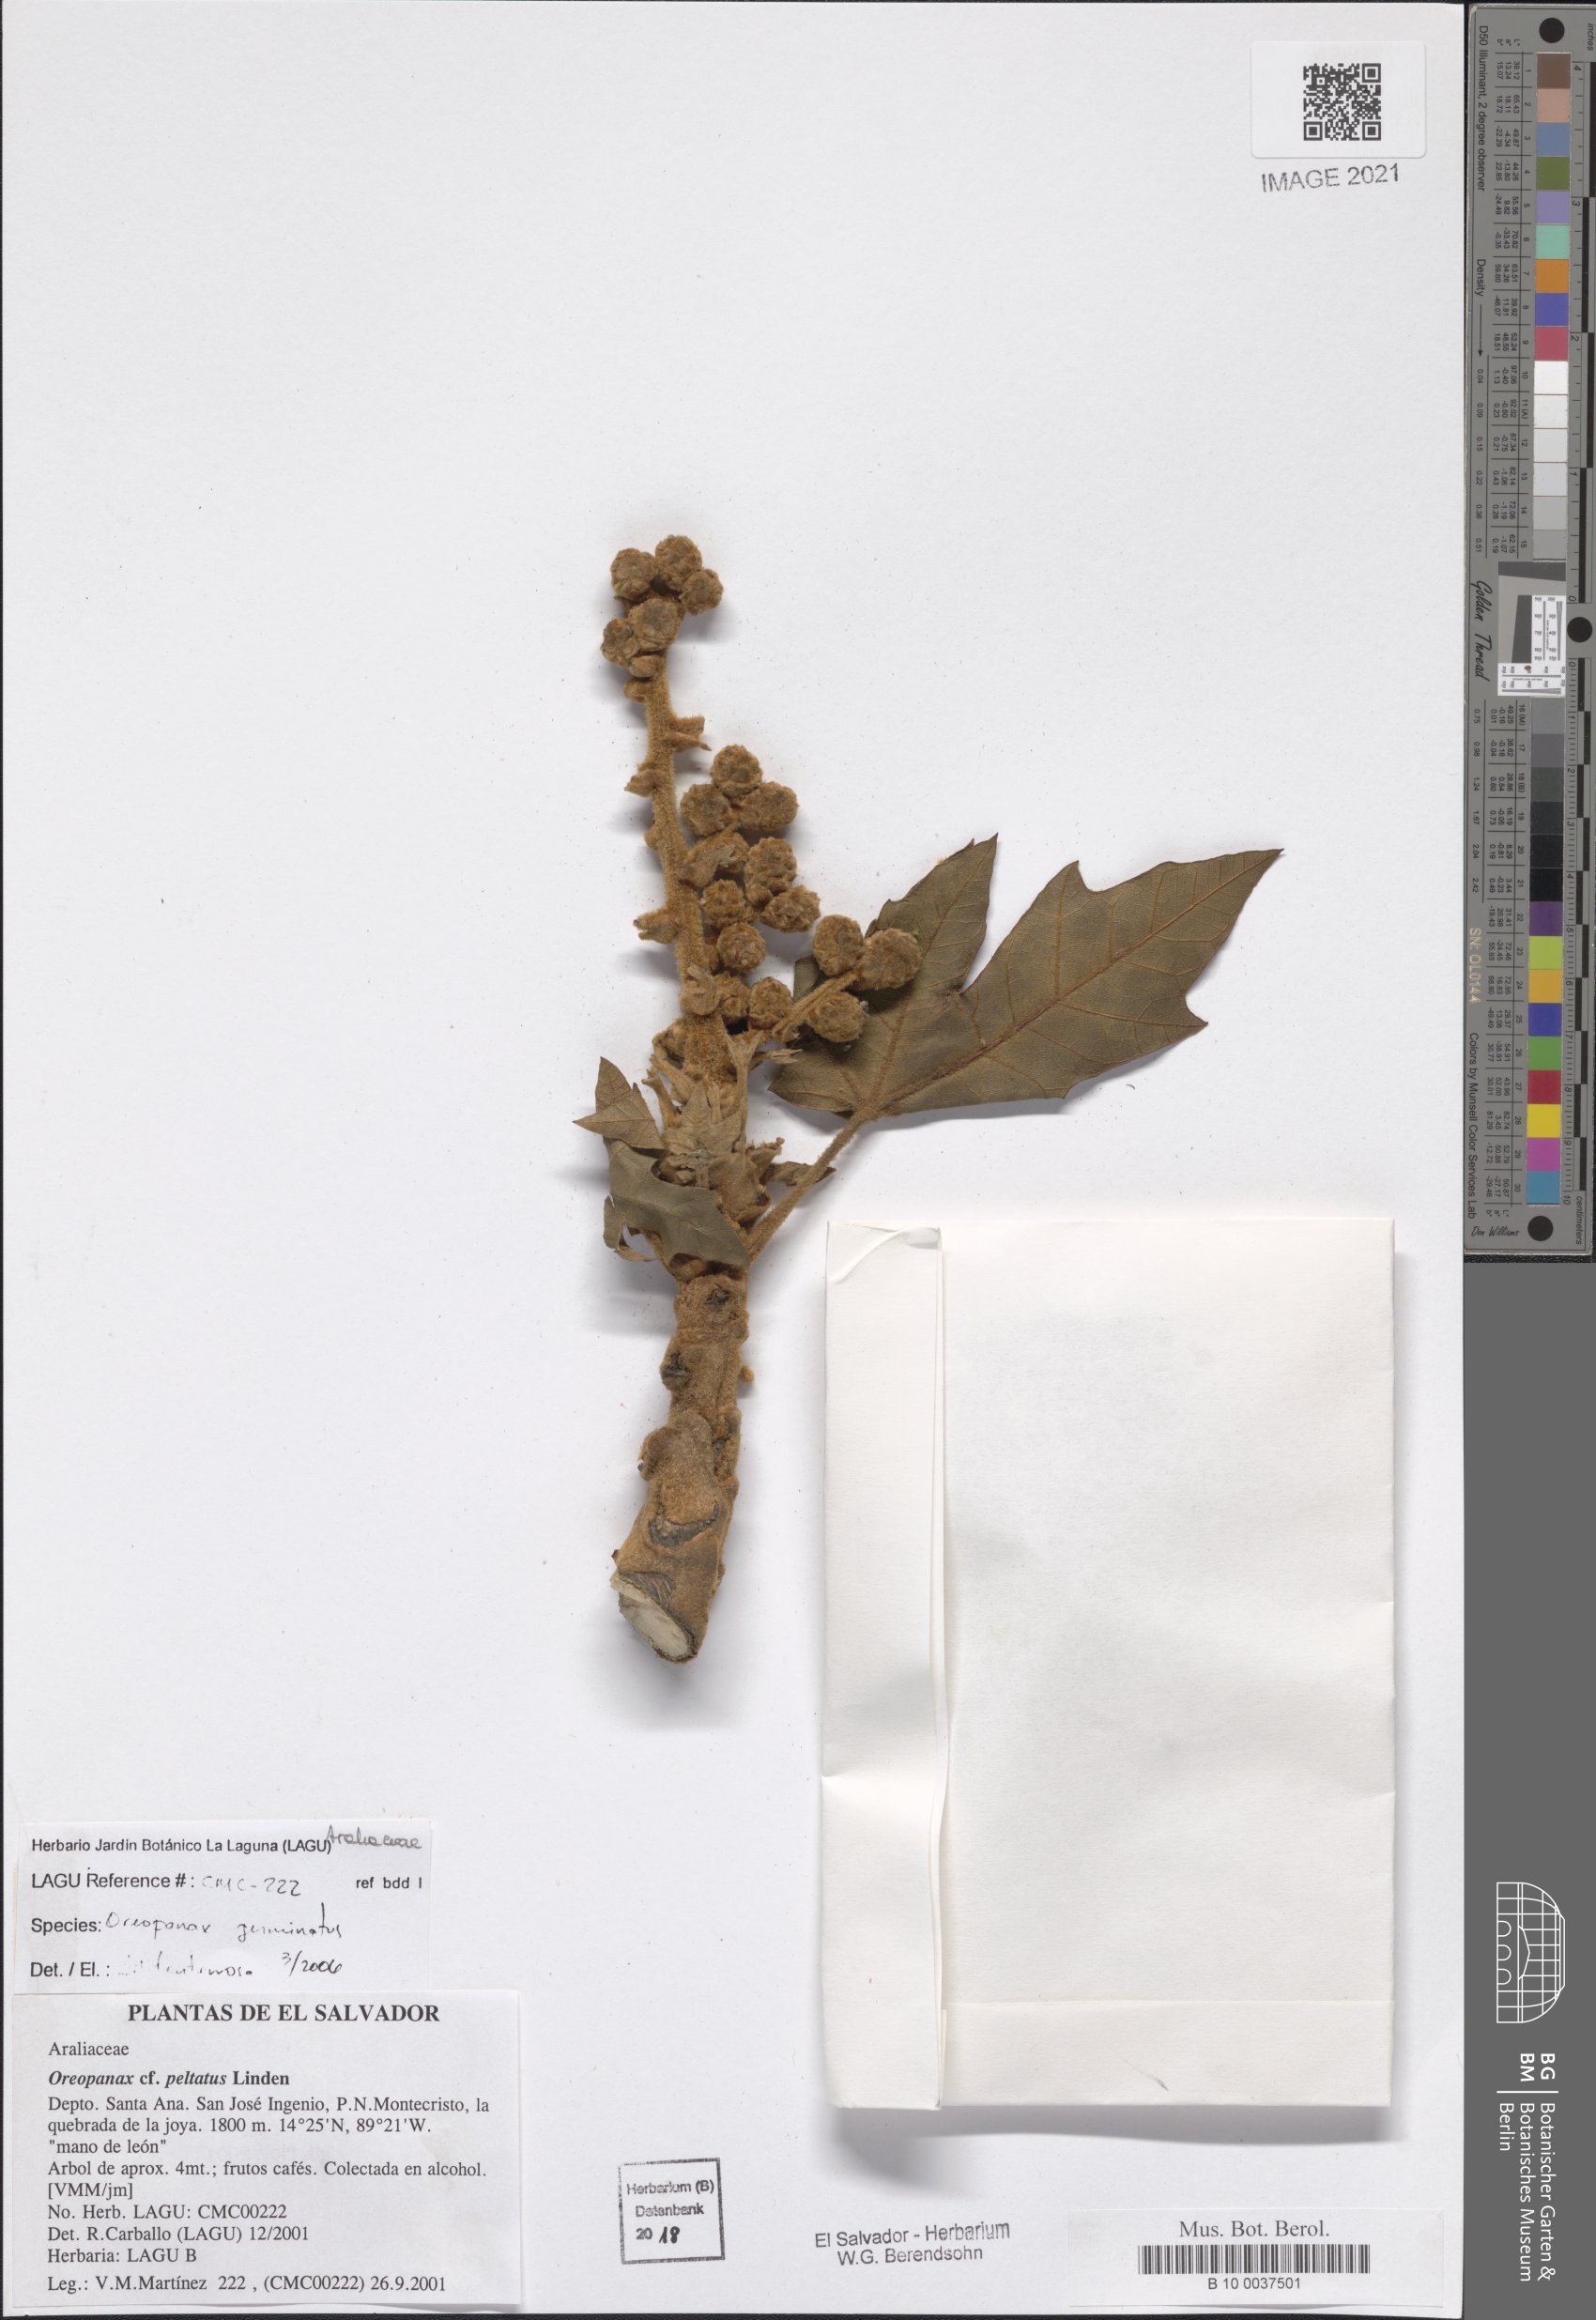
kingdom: Plantae
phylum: Tracheophyta
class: Magnoliopsida
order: Apiales
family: Araliaceae
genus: Oreopanax
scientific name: Oreopanax geminatus
